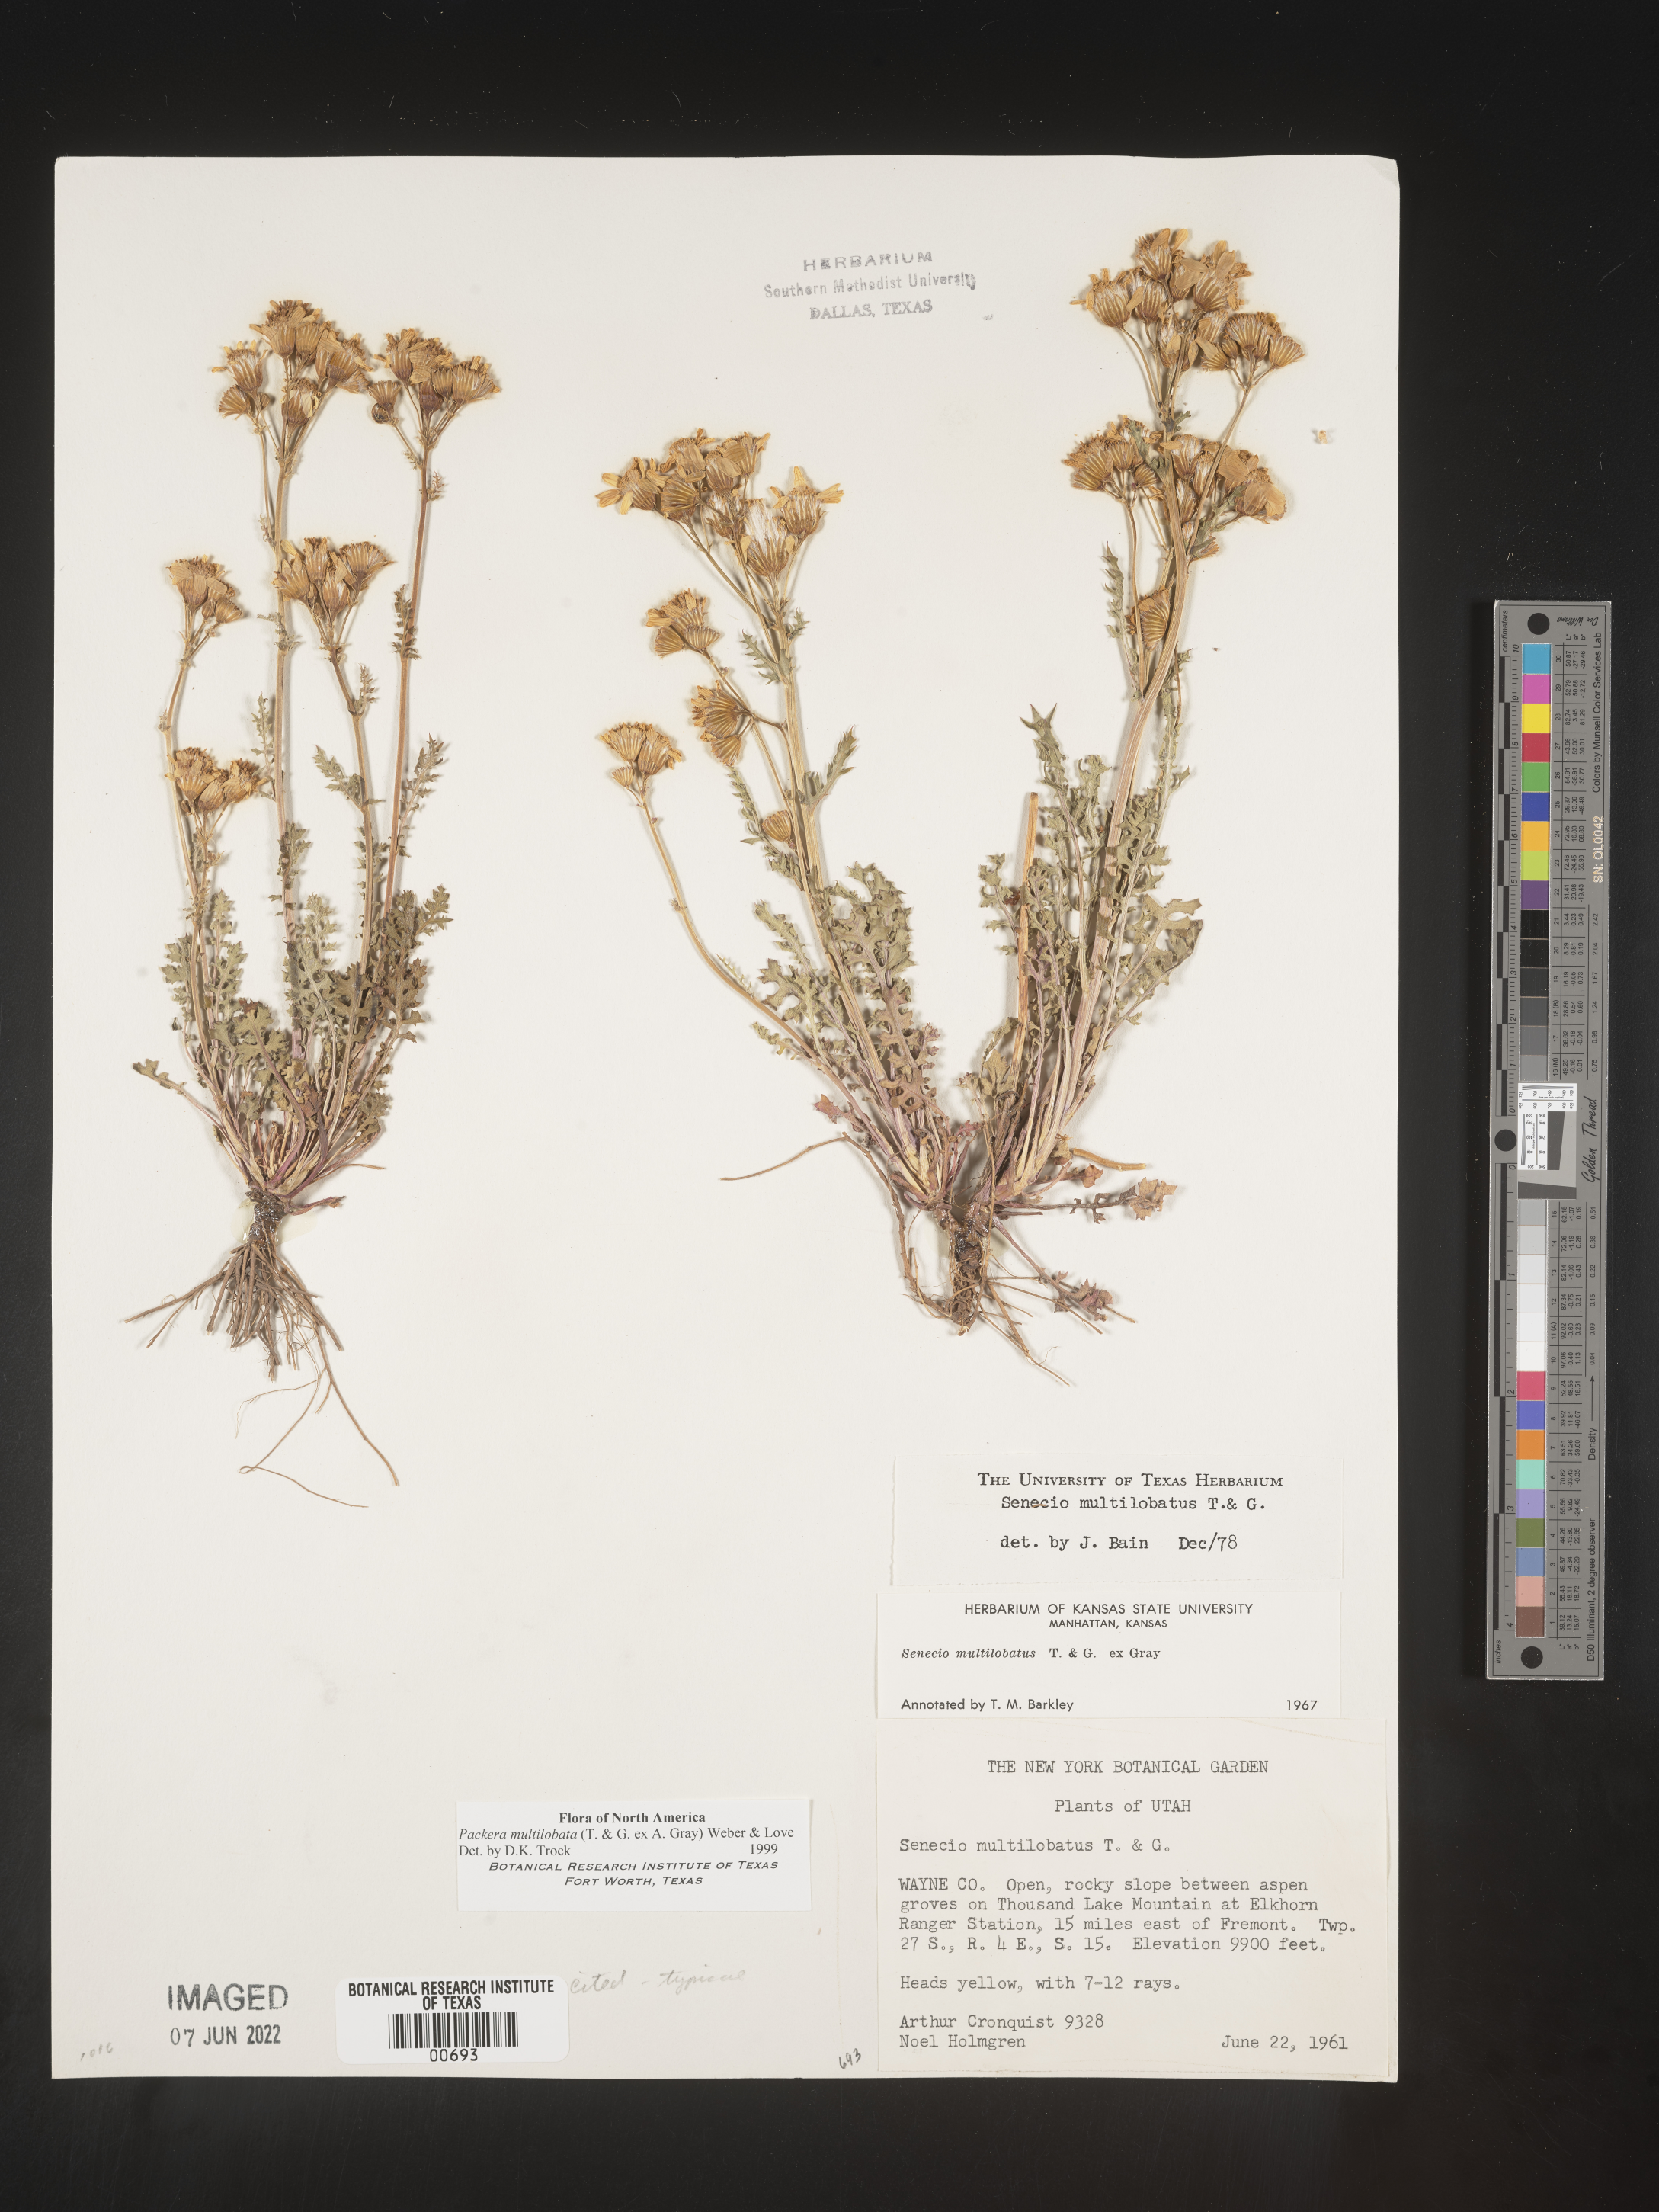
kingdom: Plantae
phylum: Tracheophyta
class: Magnoliopsida
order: Asterales
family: Asteraceae
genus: Packera
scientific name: Packera multilobata
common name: Lobe-leaf groundsel
